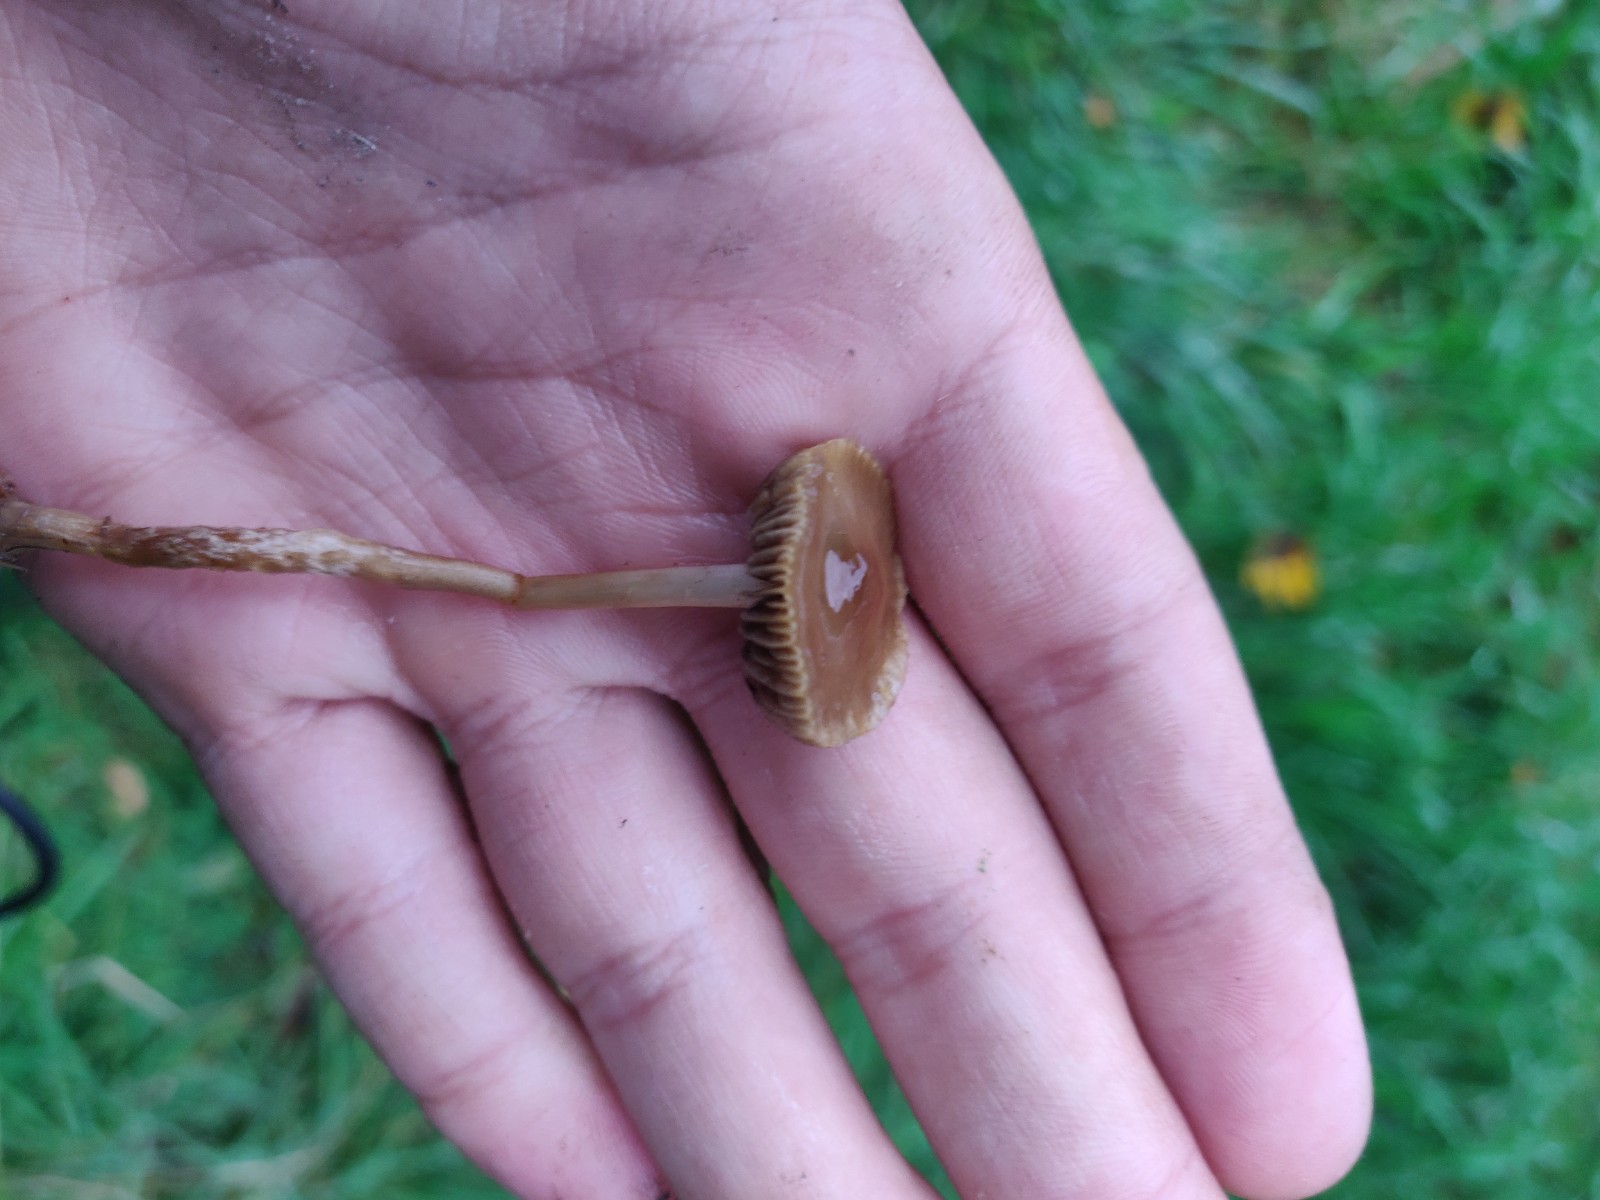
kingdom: Fungi
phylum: Basidiomycota
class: Agaricomycetes
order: Agaricales
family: Strophariaceae
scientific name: Strophariaceae
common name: bredbladfamilien
